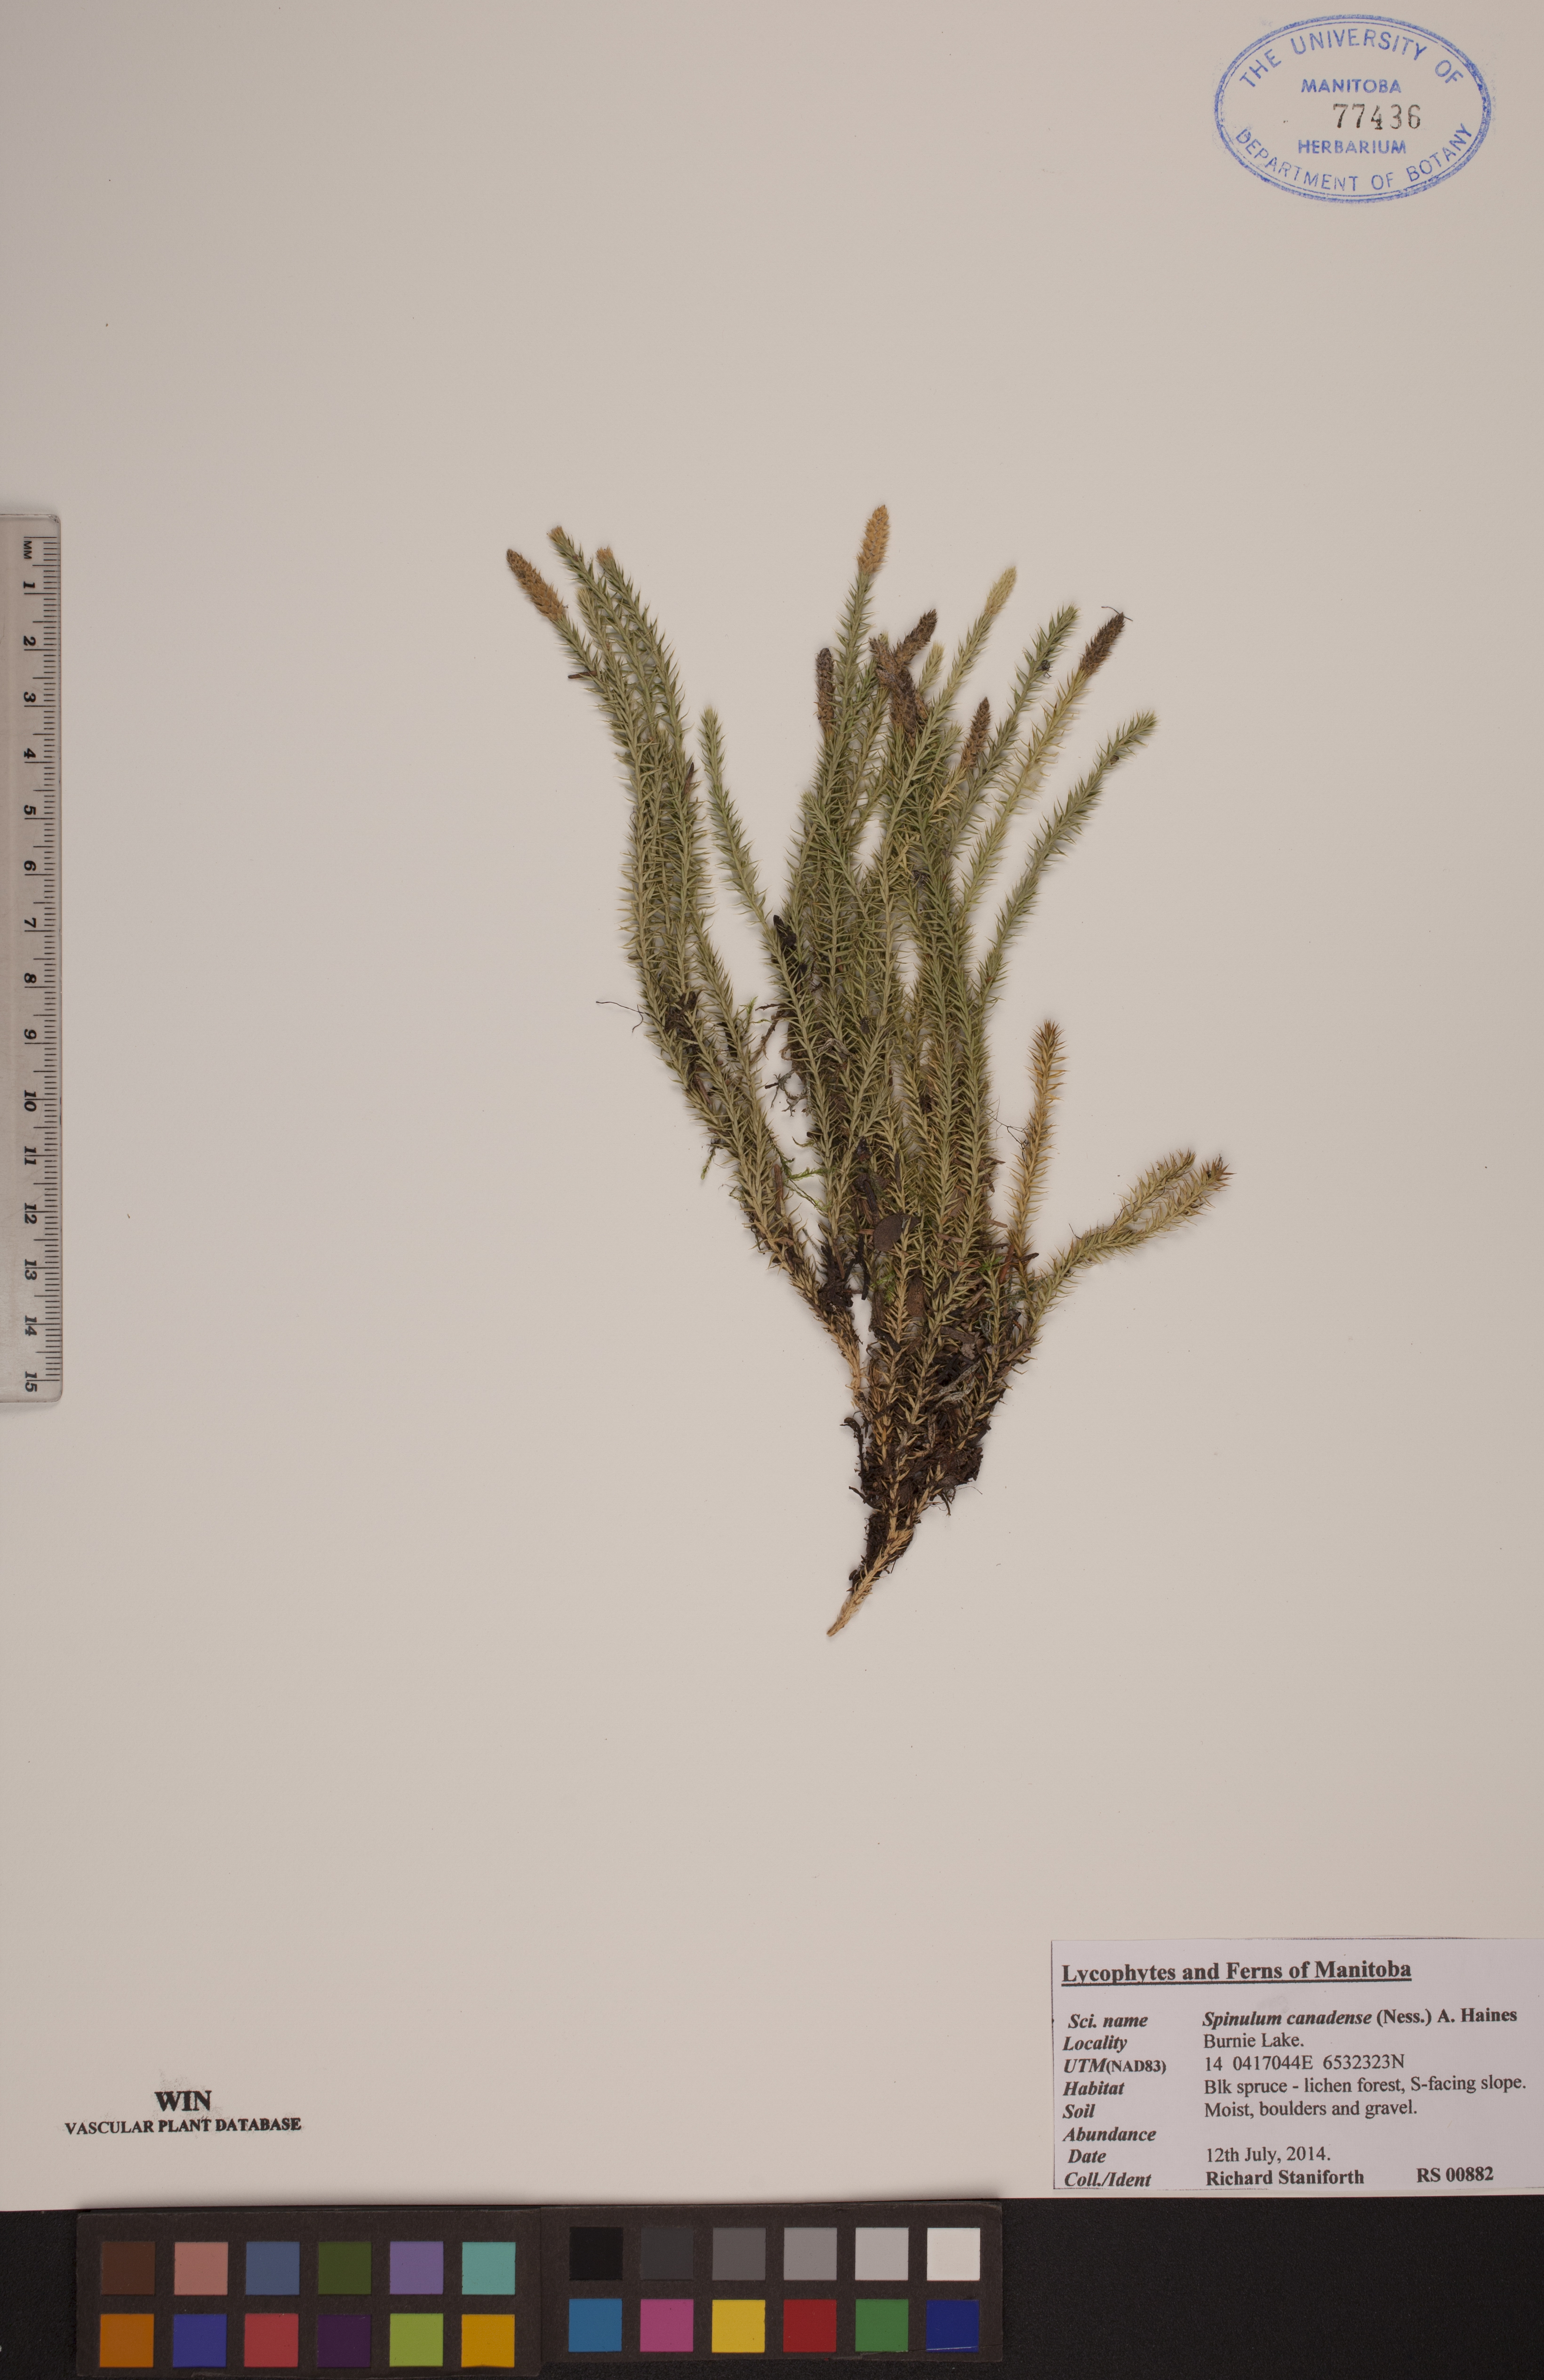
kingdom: Plantae
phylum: Tracheophyta
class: Lycopodiopsida
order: Lycopodiales
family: Lycopodiaceae
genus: Spinulum
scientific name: Spinulum annotinum
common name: Interrupted club-moss
